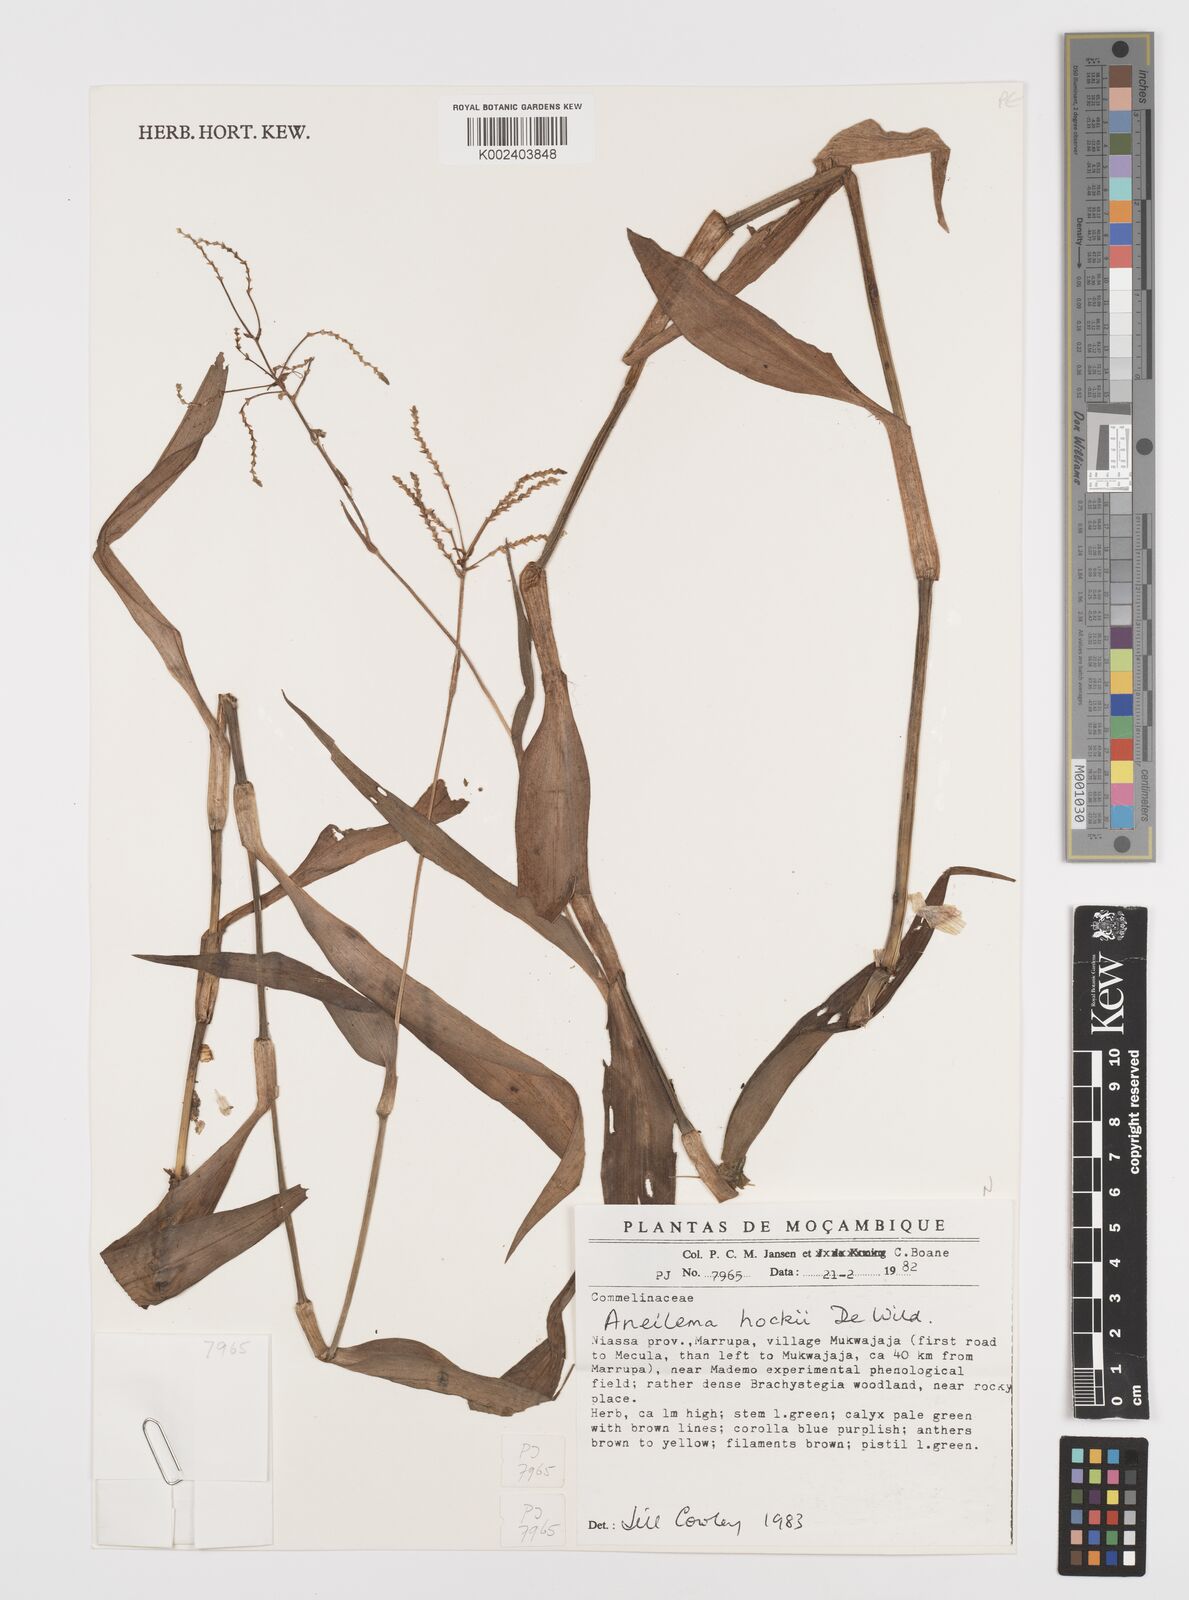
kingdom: Plantae
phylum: Tracheophyta
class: Liliopsida
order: Commelinales
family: Commelinaceae
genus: Aneilema
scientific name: Aneilema hockii
